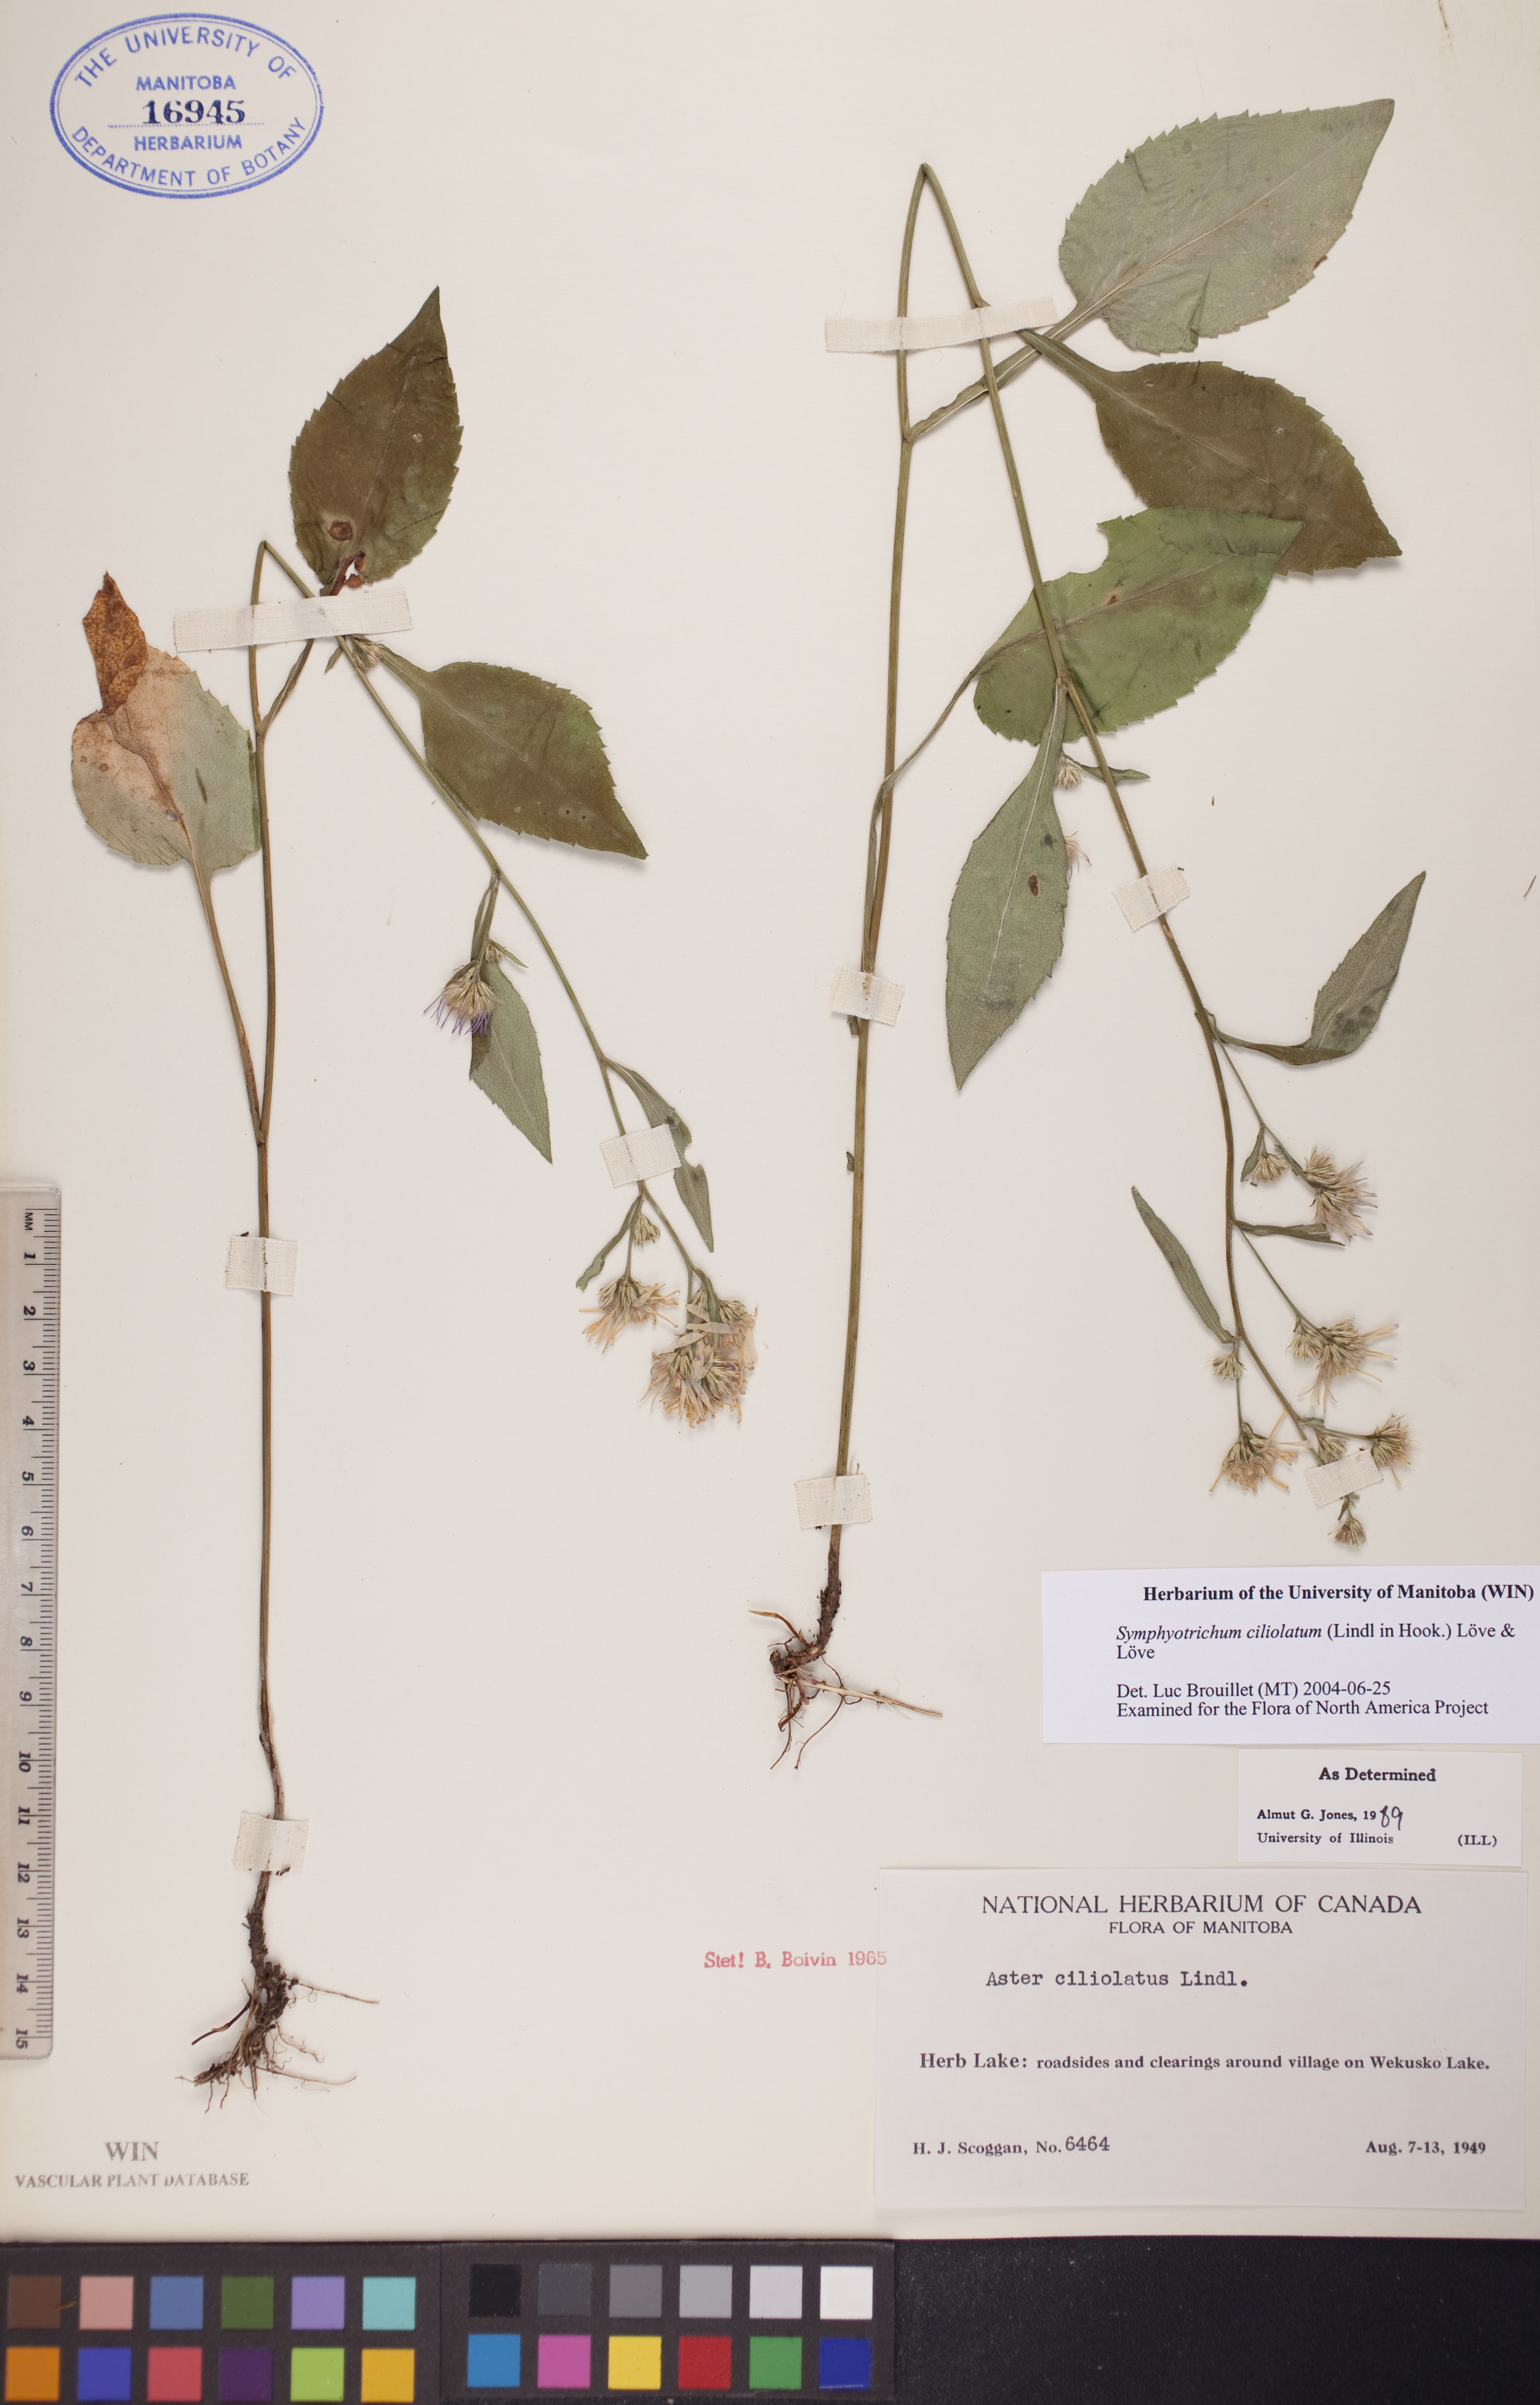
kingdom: Plantae
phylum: Tracheophyta
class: Magnoliopsida
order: Asterales
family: Asteraceae
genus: Symphyotrichum
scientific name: Symphyotrichum ciliolatum
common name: Fringed blue aster
